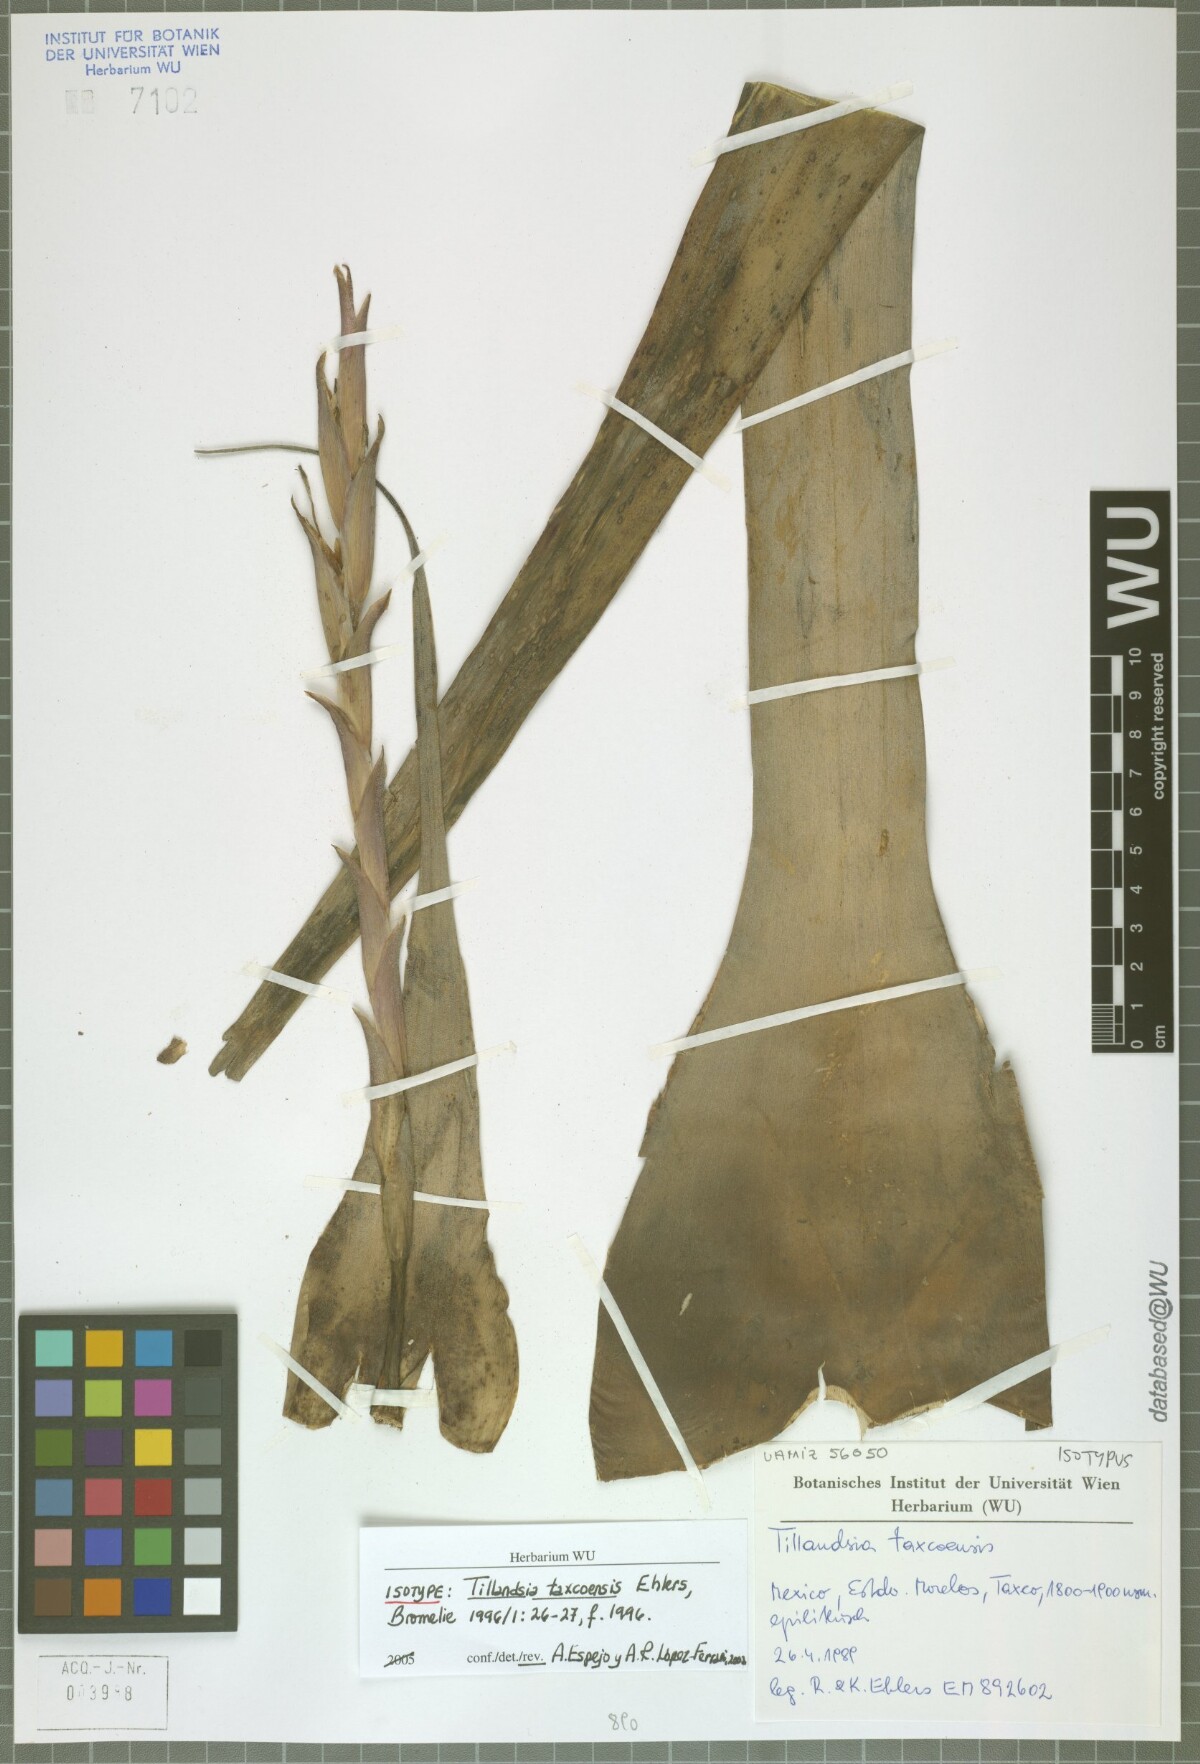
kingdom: Plantae
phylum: Tracheophyta
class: Liliopsida
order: Poales
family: Bromeliaceae
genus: Tillandsia
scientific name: Tillandsia taxcoensis
